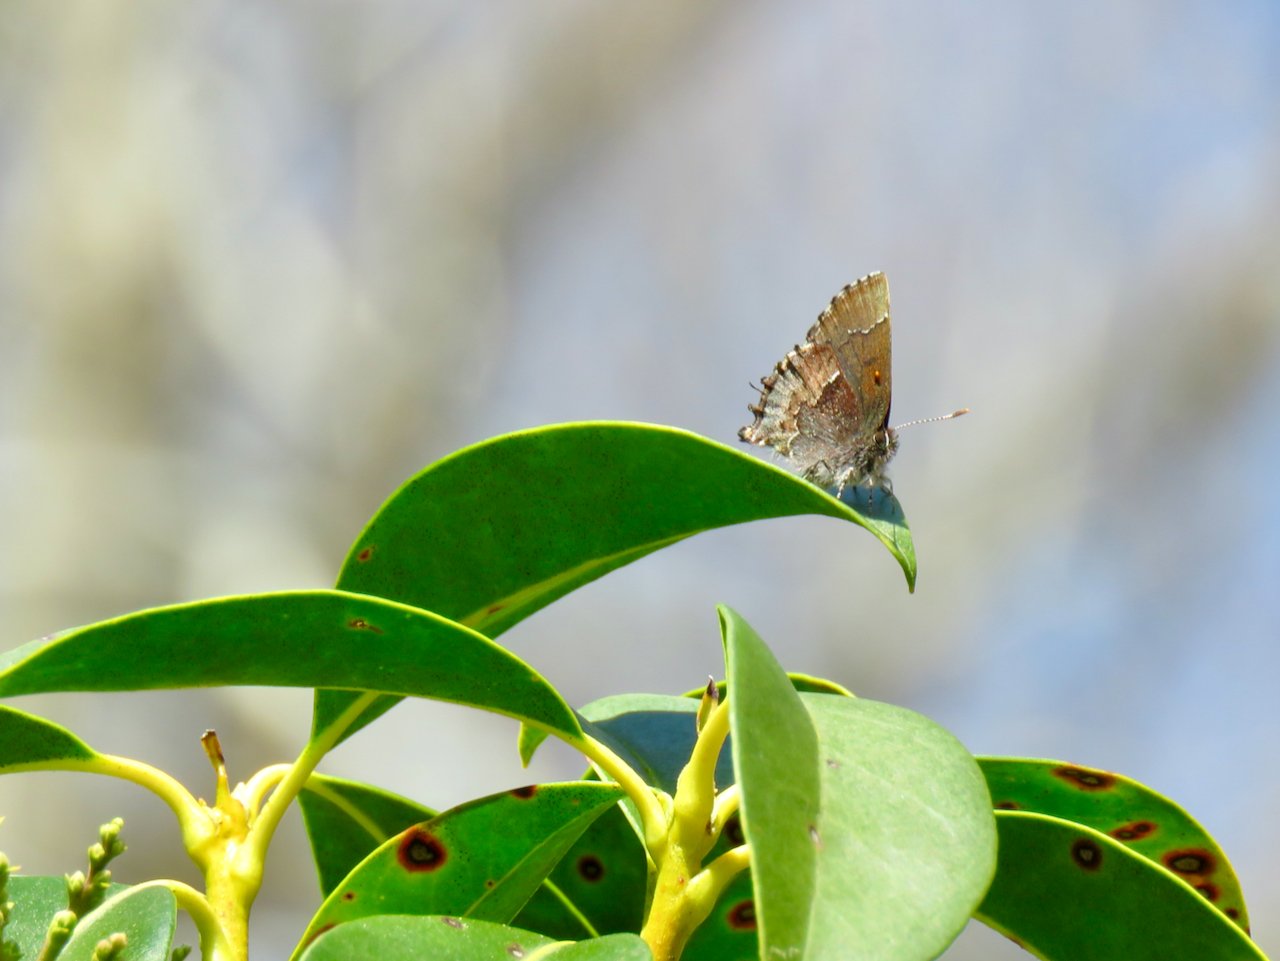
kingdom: Animalia
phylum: Arthropoda
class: Insecta
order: Lepidoptera
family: Lycaenidae
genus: Incisalia
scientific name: Incisalia henrici
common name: Henry's Elfin
